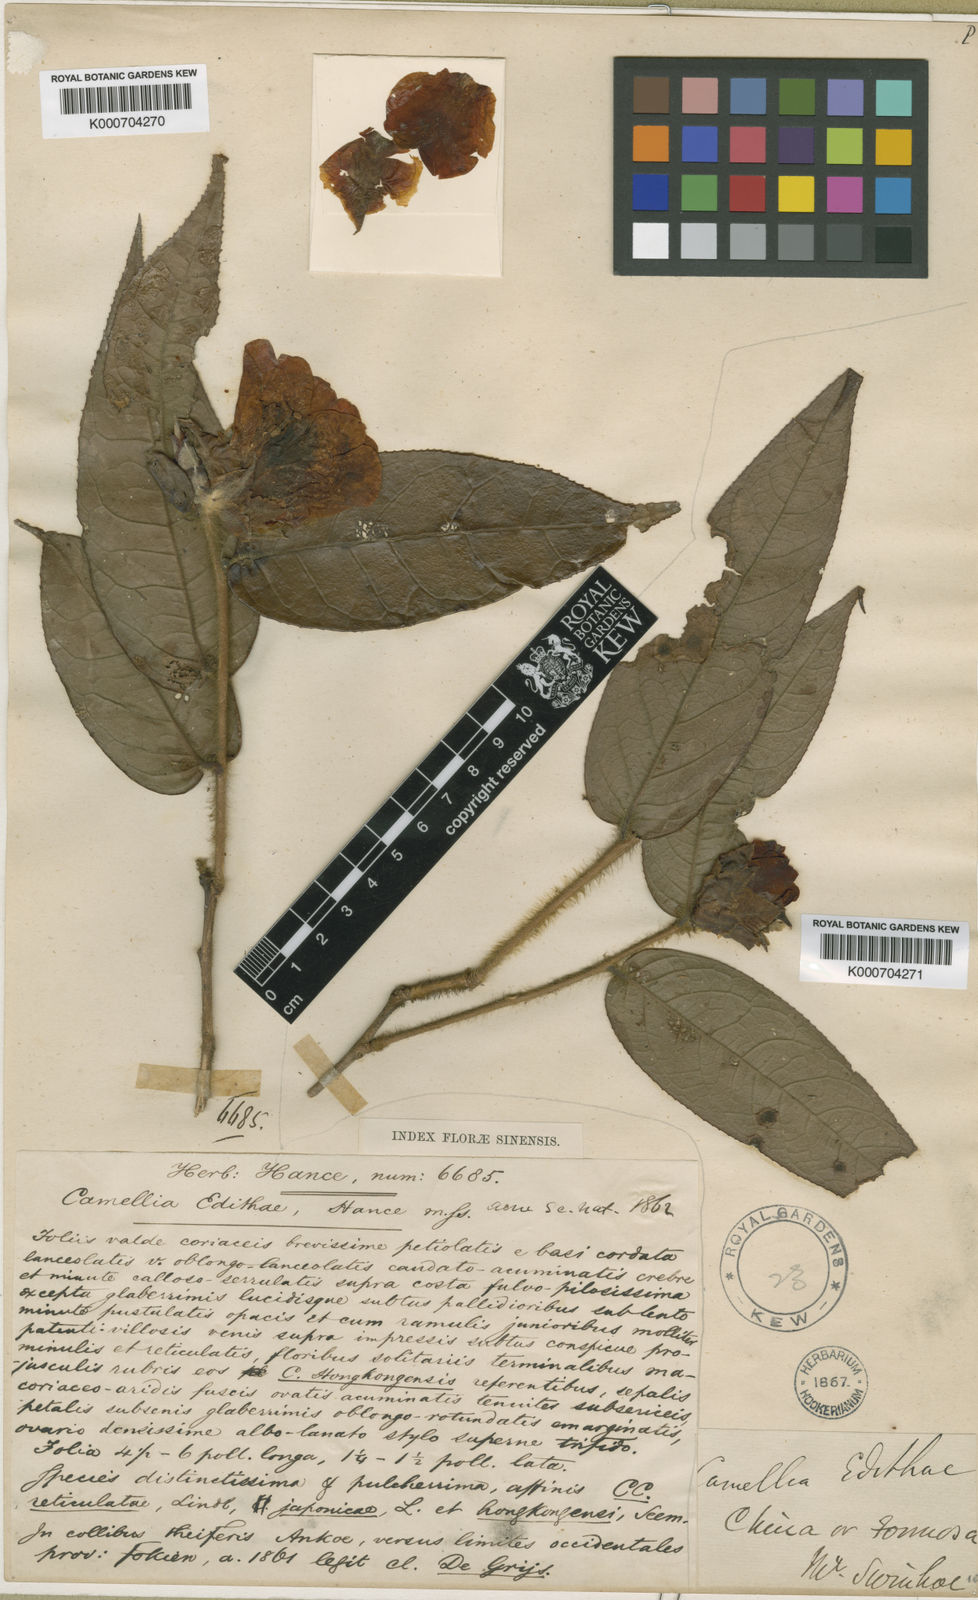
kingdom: Plantae
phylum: Tracheophyta
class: Magnoliopsida
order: Ericales
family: Theaceae
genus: Camellia
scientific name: Camellia edithae
